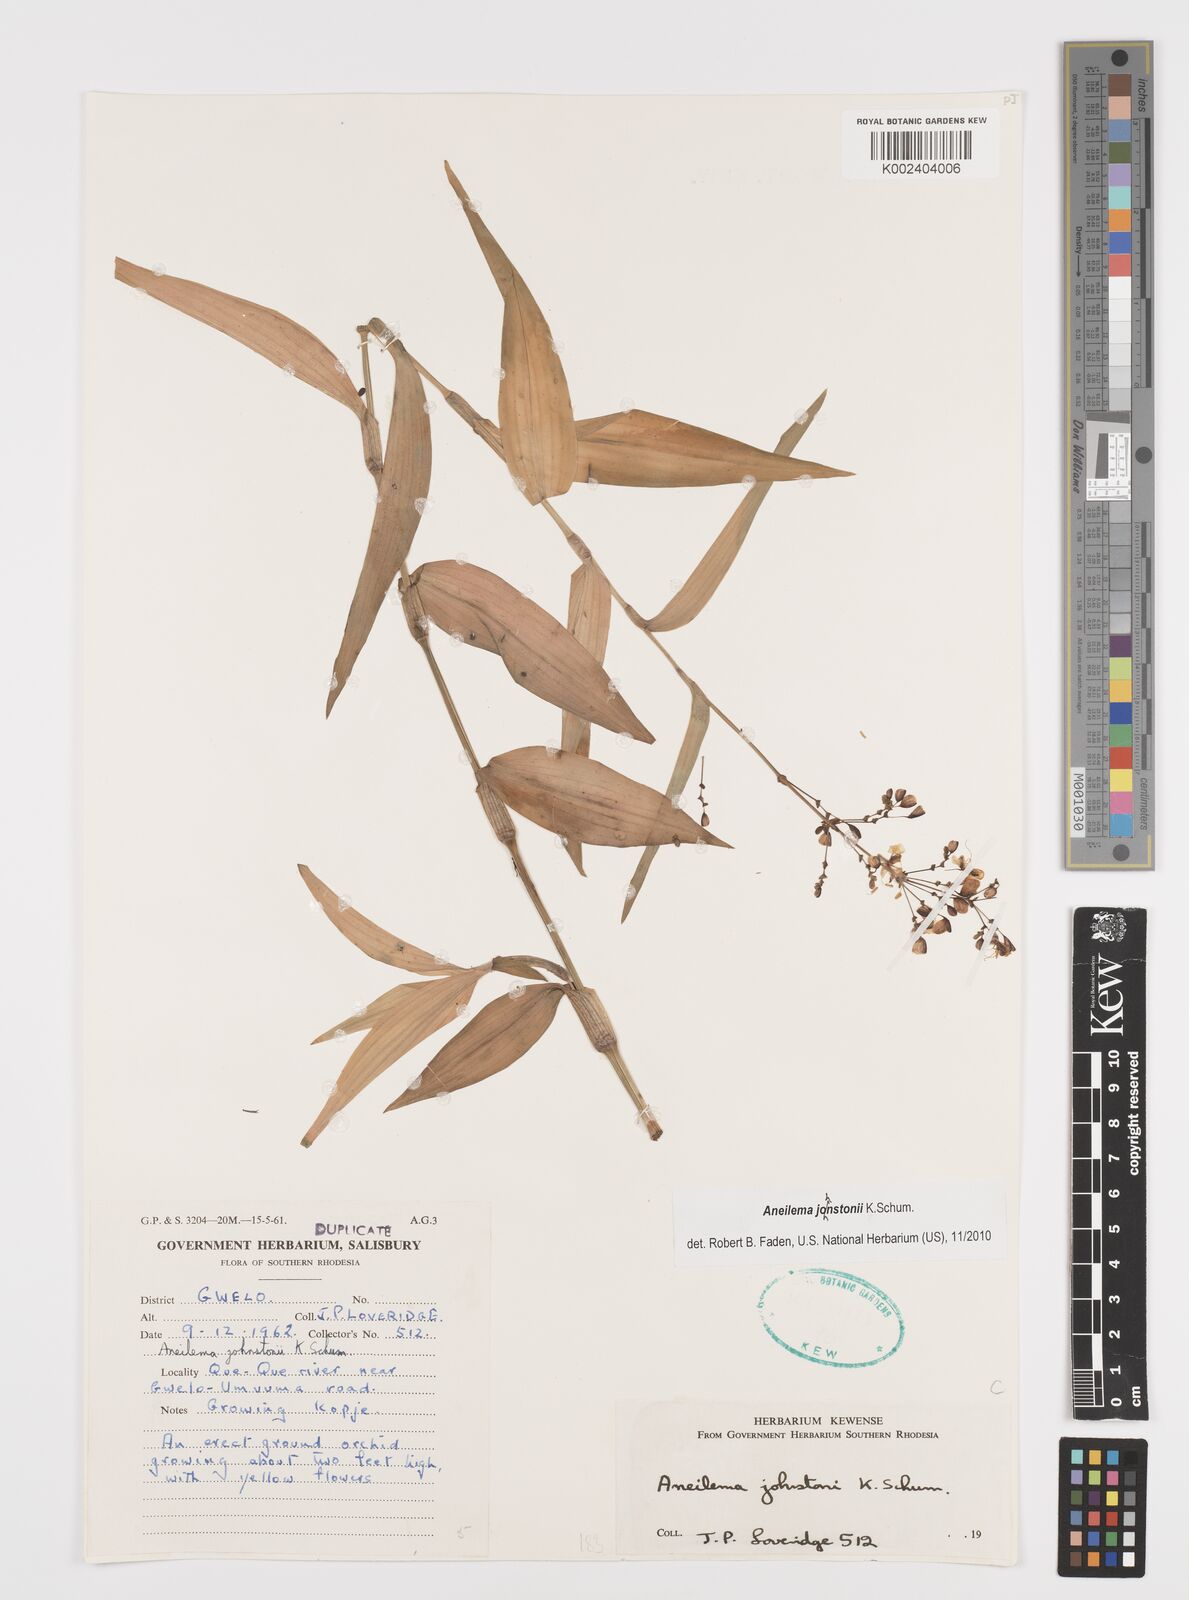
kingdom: Plantae
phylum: Tracheophyta
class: Liliopsida
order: Commelinales
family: Commelinaceae
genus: Aneilema
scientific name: Aneilema johnstonii
